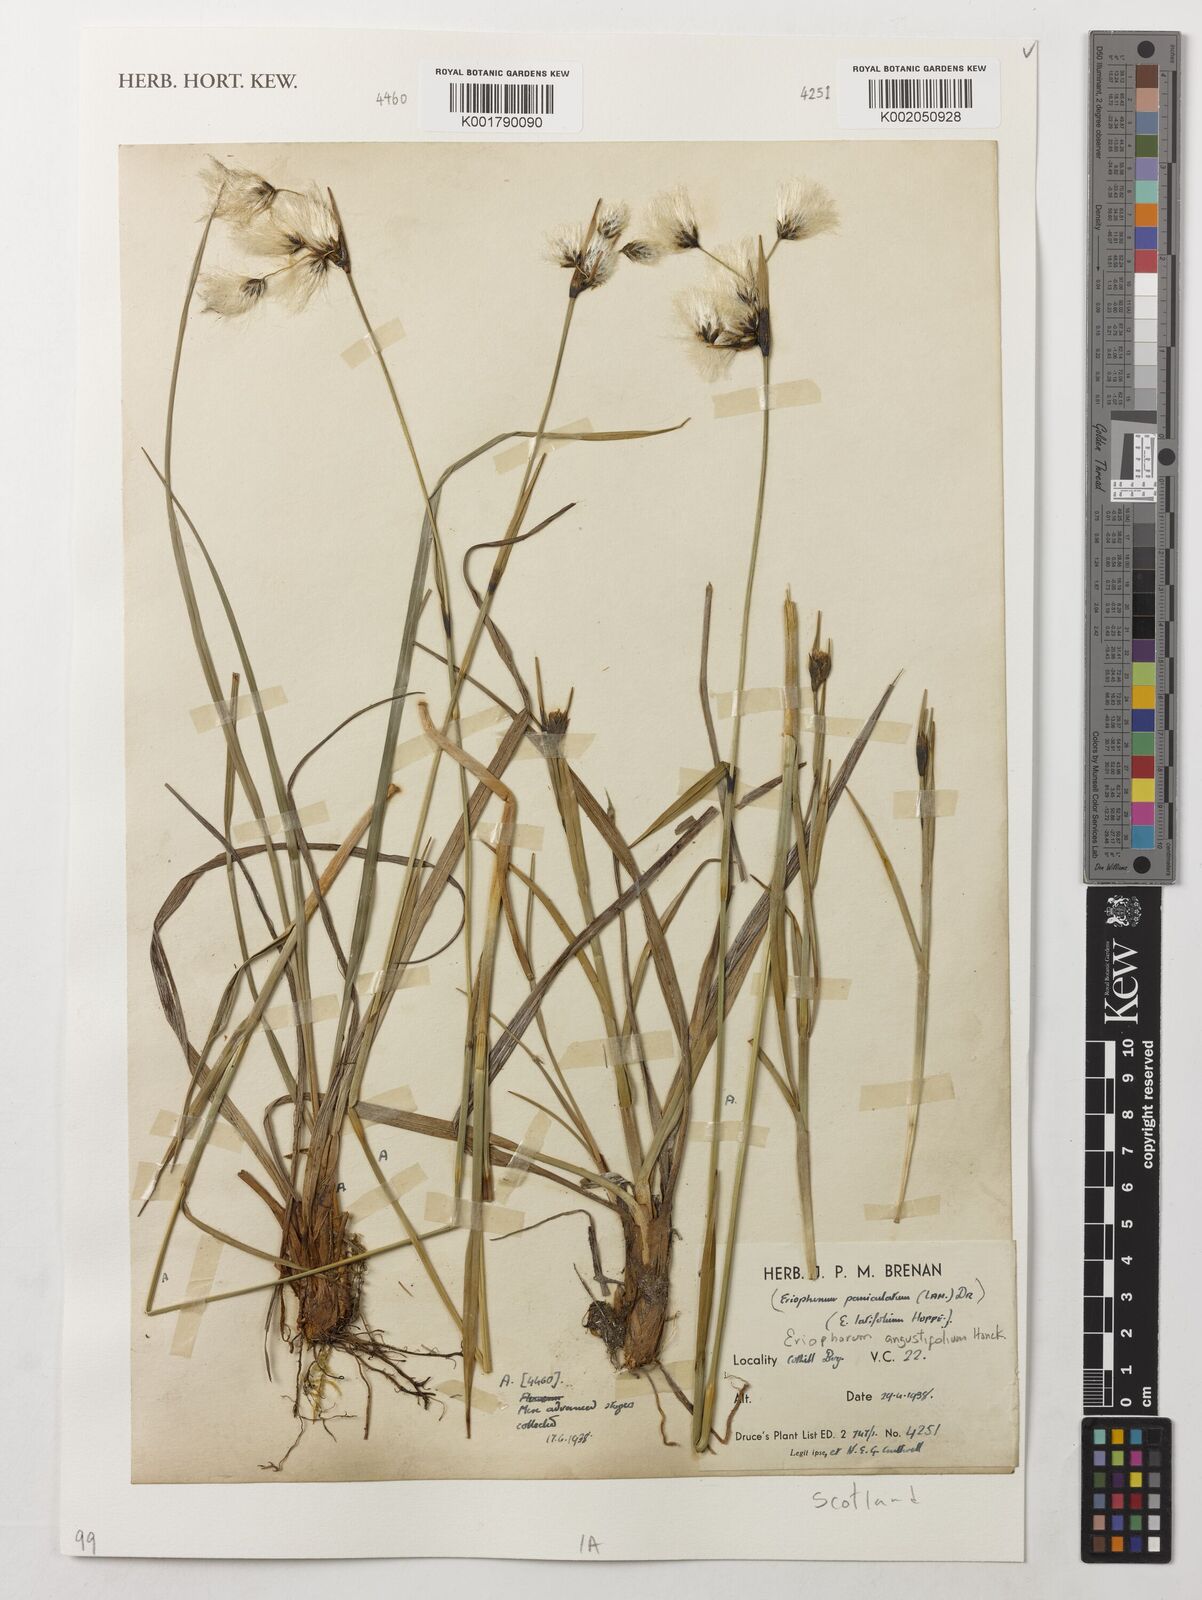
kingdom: Plantae
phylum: Tracheophyta
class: Liliopsida
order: Poales
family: Cyperaceae
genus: Eriophorum
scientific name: Eriophorum angustifolium
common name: Common cottongrass
